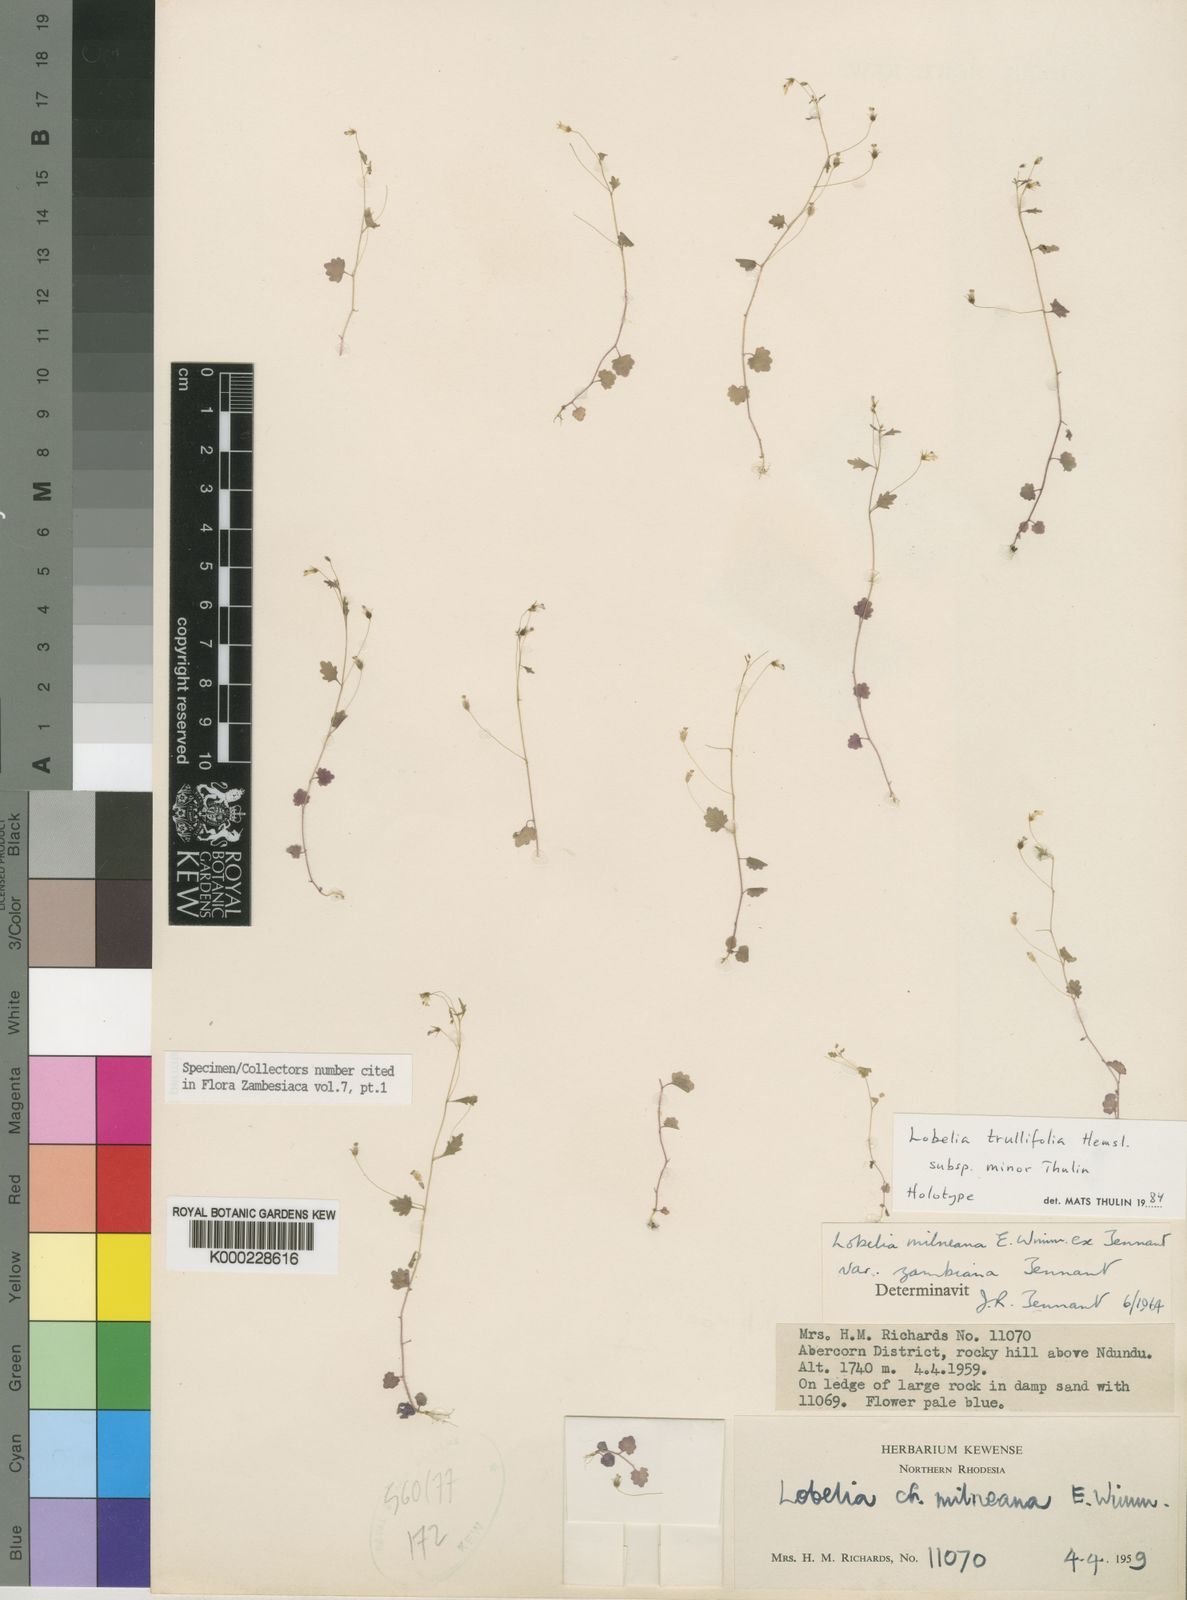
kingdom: Plantae
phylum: Tracheophyta
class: Magnoliopsida
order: Asterales
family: Campanulaceae
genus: Lobelia
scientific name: Lobelia trullifolia
